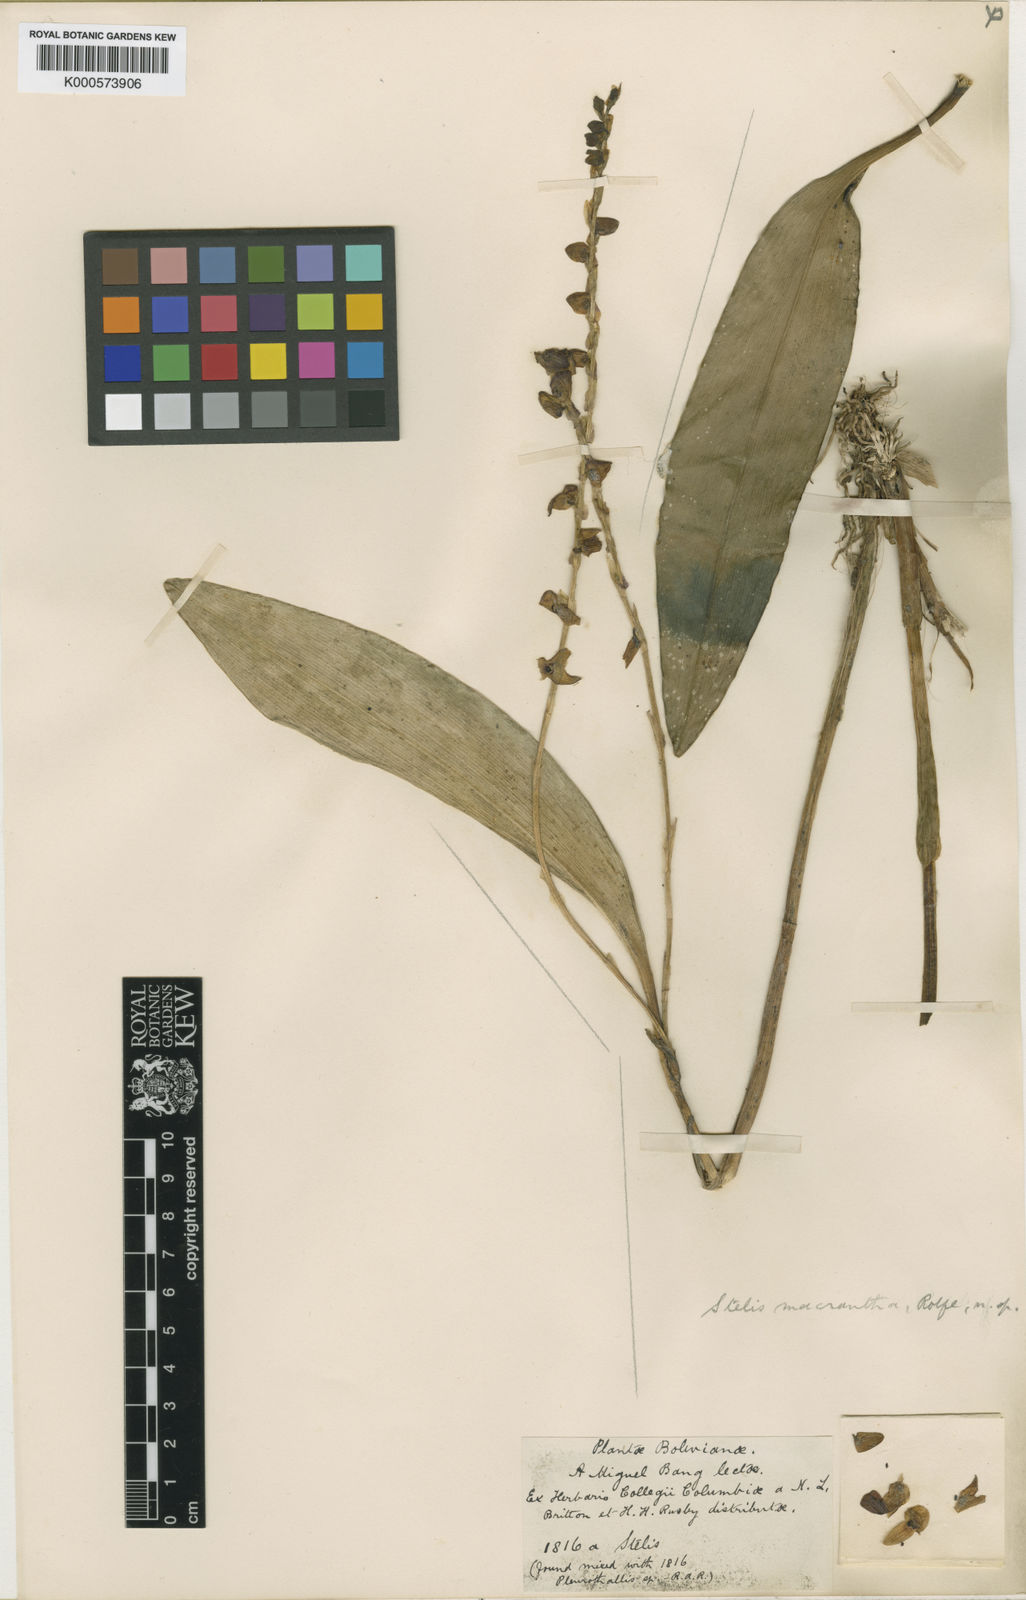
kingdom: Plantae
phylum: Tracheophyta
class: Liliopsida
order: Asparagales
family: Orchidaceae
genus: Stelis
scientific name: Stelis purpurea
